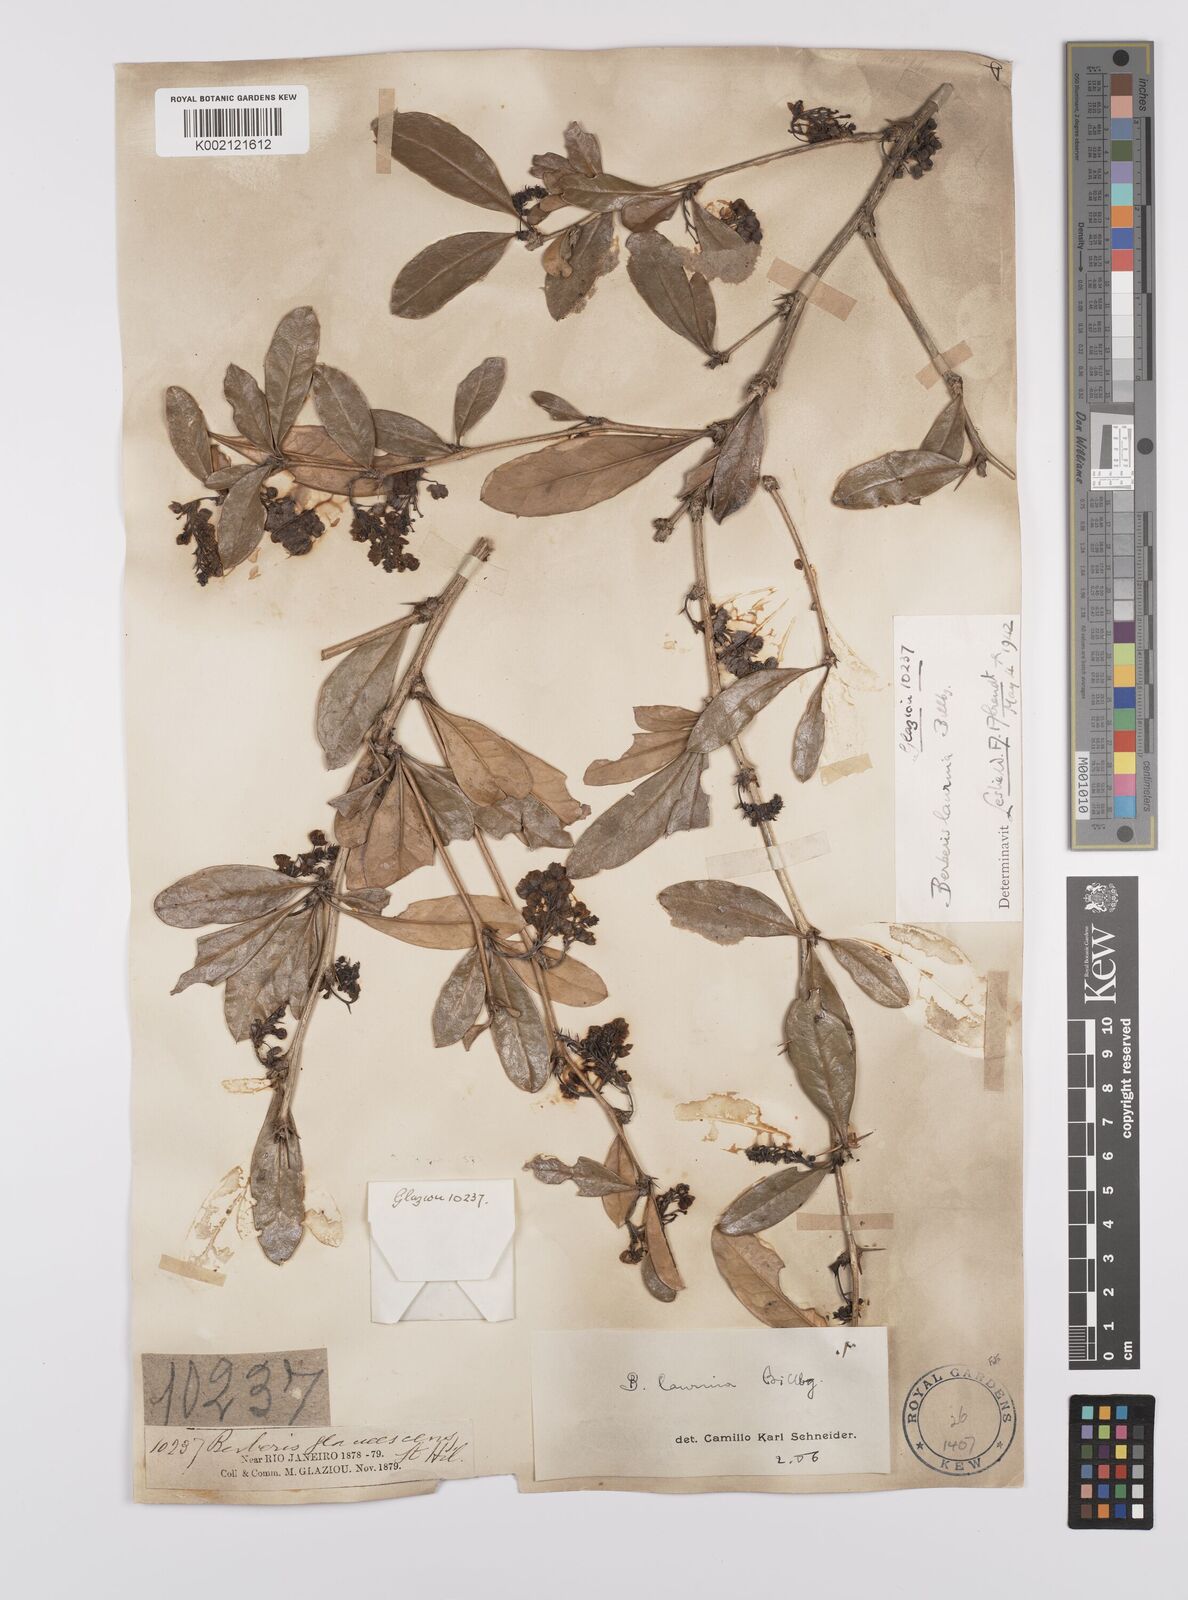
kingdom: Plantae
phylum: Tracheophyta
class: Magnoliopsida
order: Ranunculales
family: Berberidaceae
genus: Berberis
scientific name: Berberis laurina
